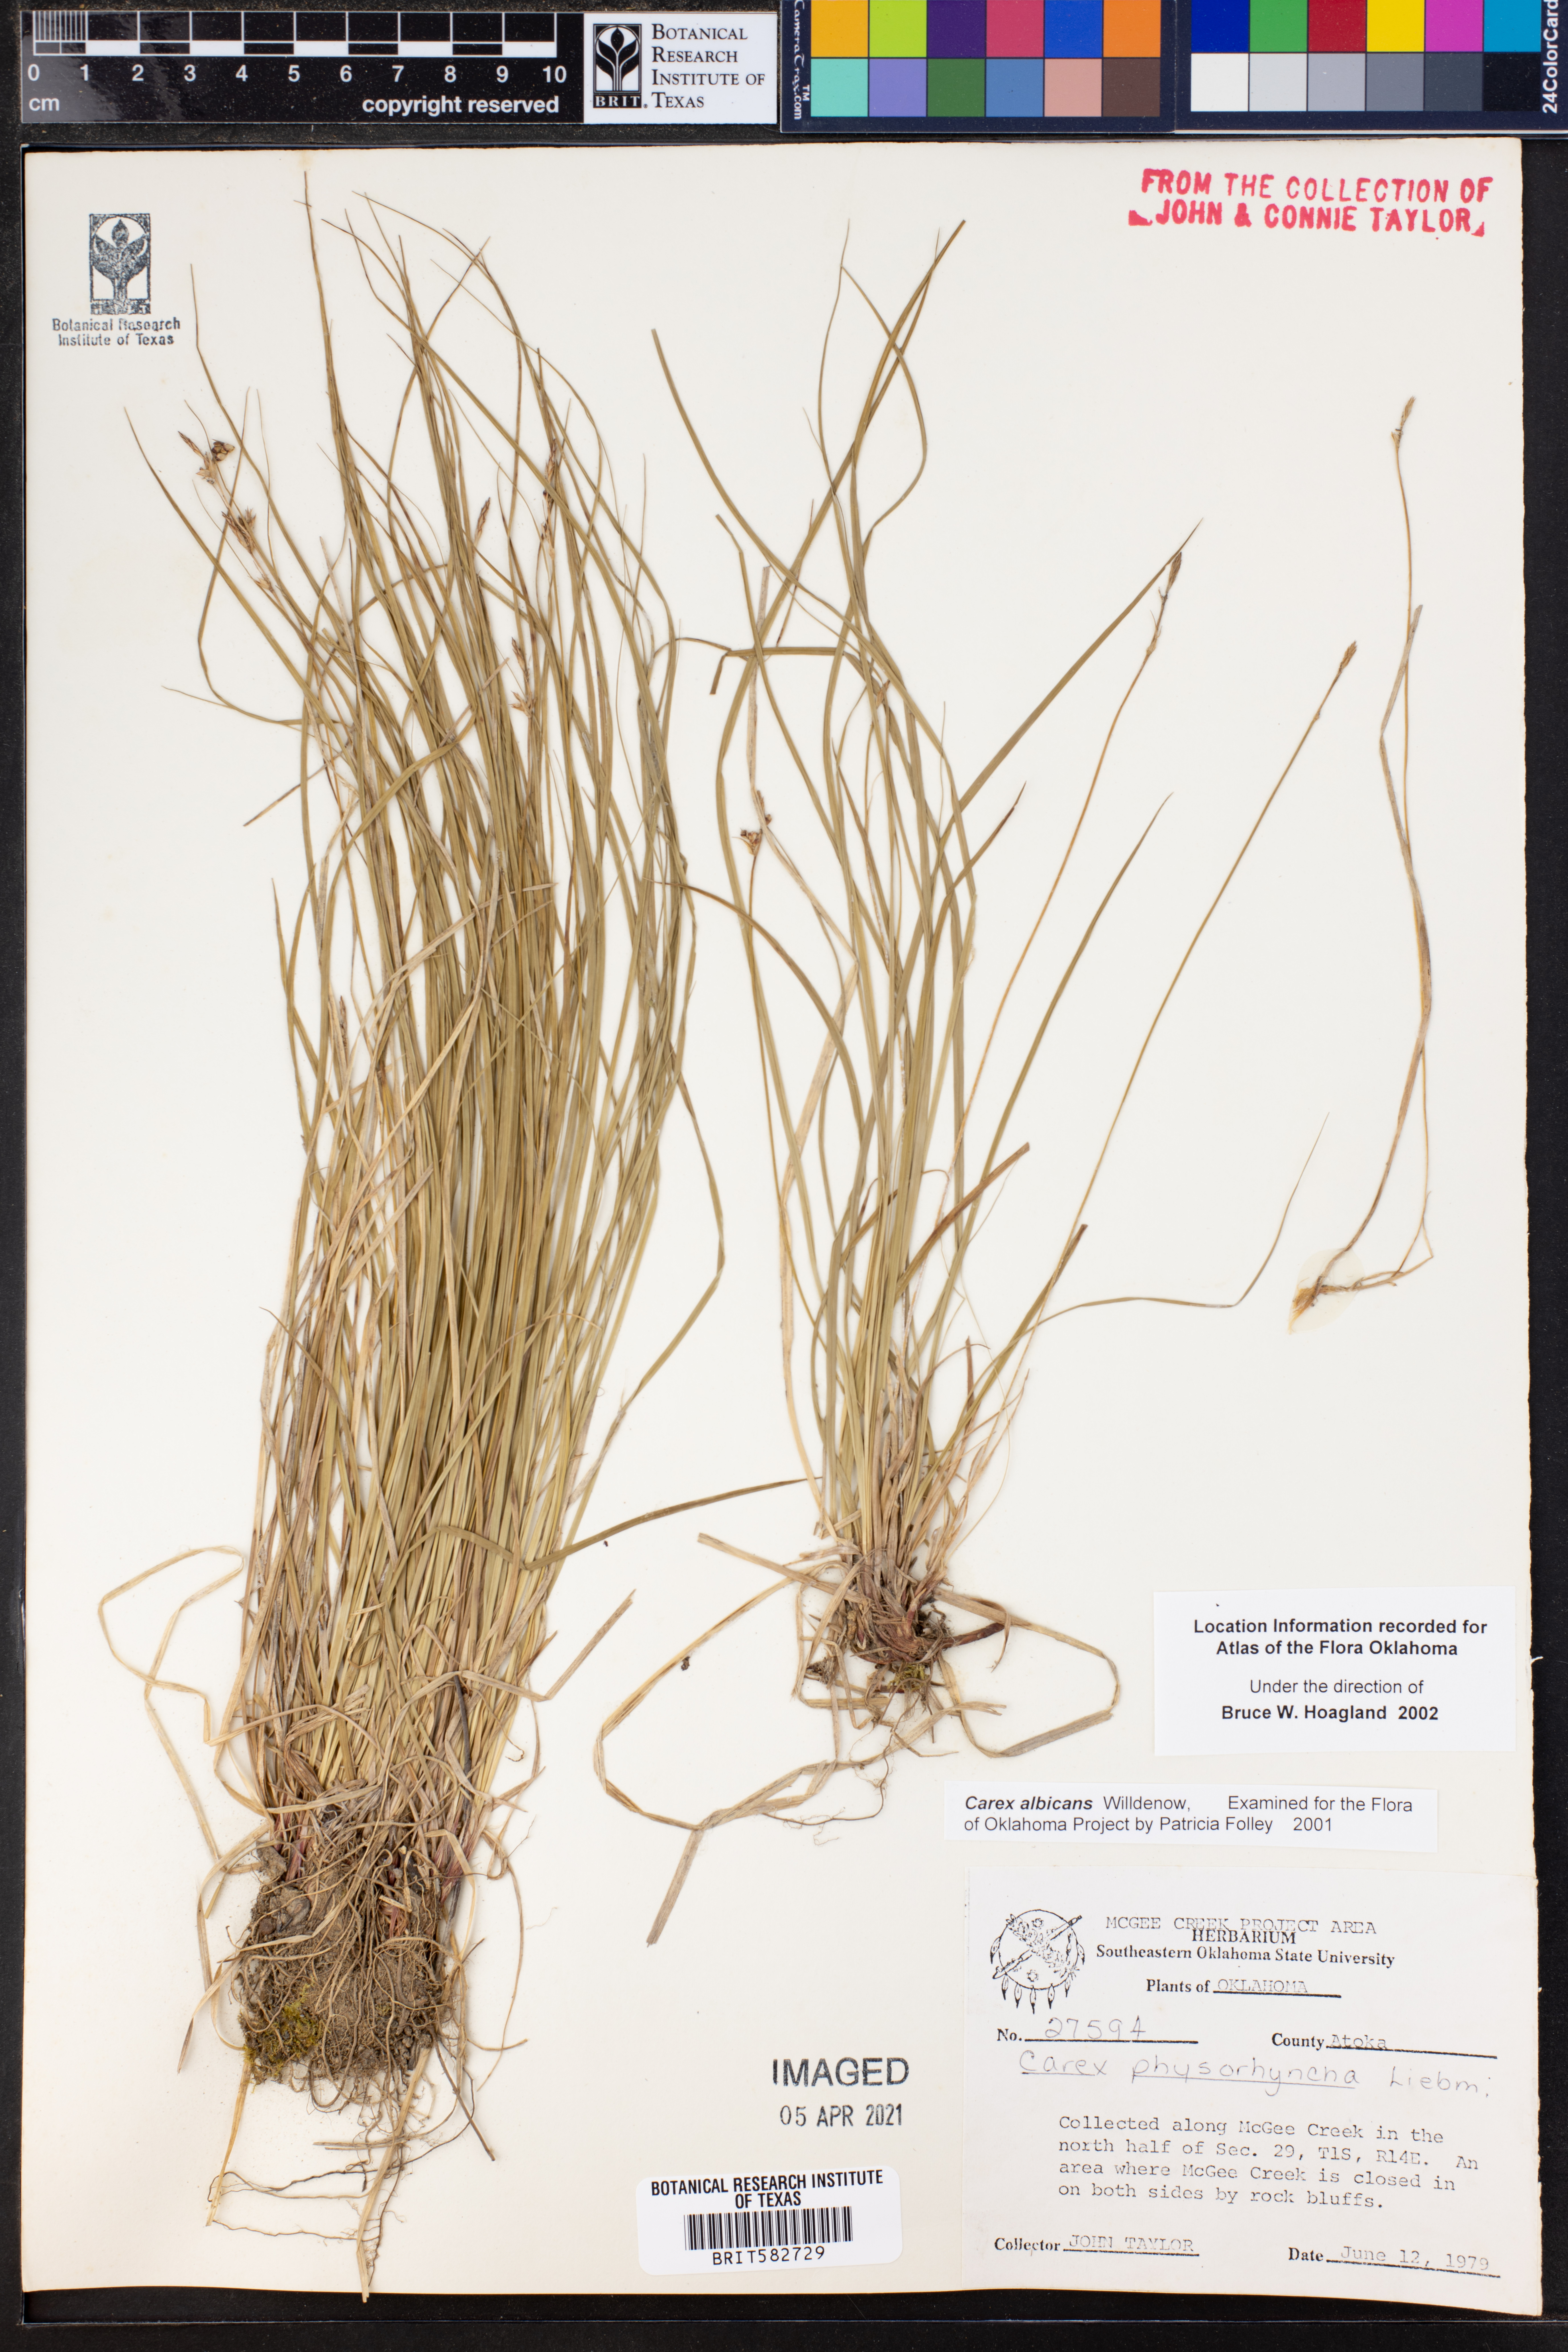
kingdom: Plantae
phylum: Tracheophyta
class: Liliopsida
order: Poales
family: Cyperaceae
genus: Carex
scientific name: Carex albicans
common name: Bellow-beaked sedge
